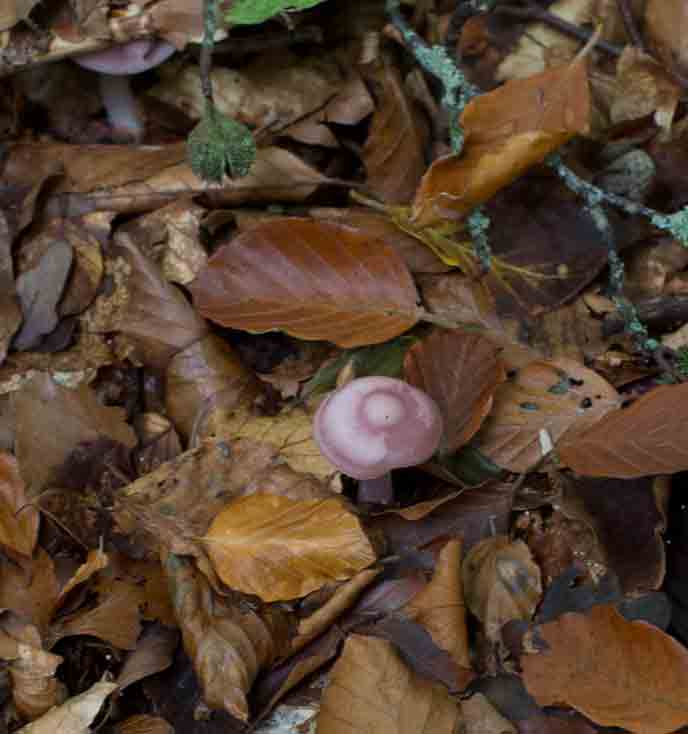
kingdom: Fungi
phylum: Basidiomycota
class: Agaricomycetes
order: Agaricales
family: Mycenaceae
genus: Mycena
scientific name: Mycena rosea
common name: rosa huesvamp
